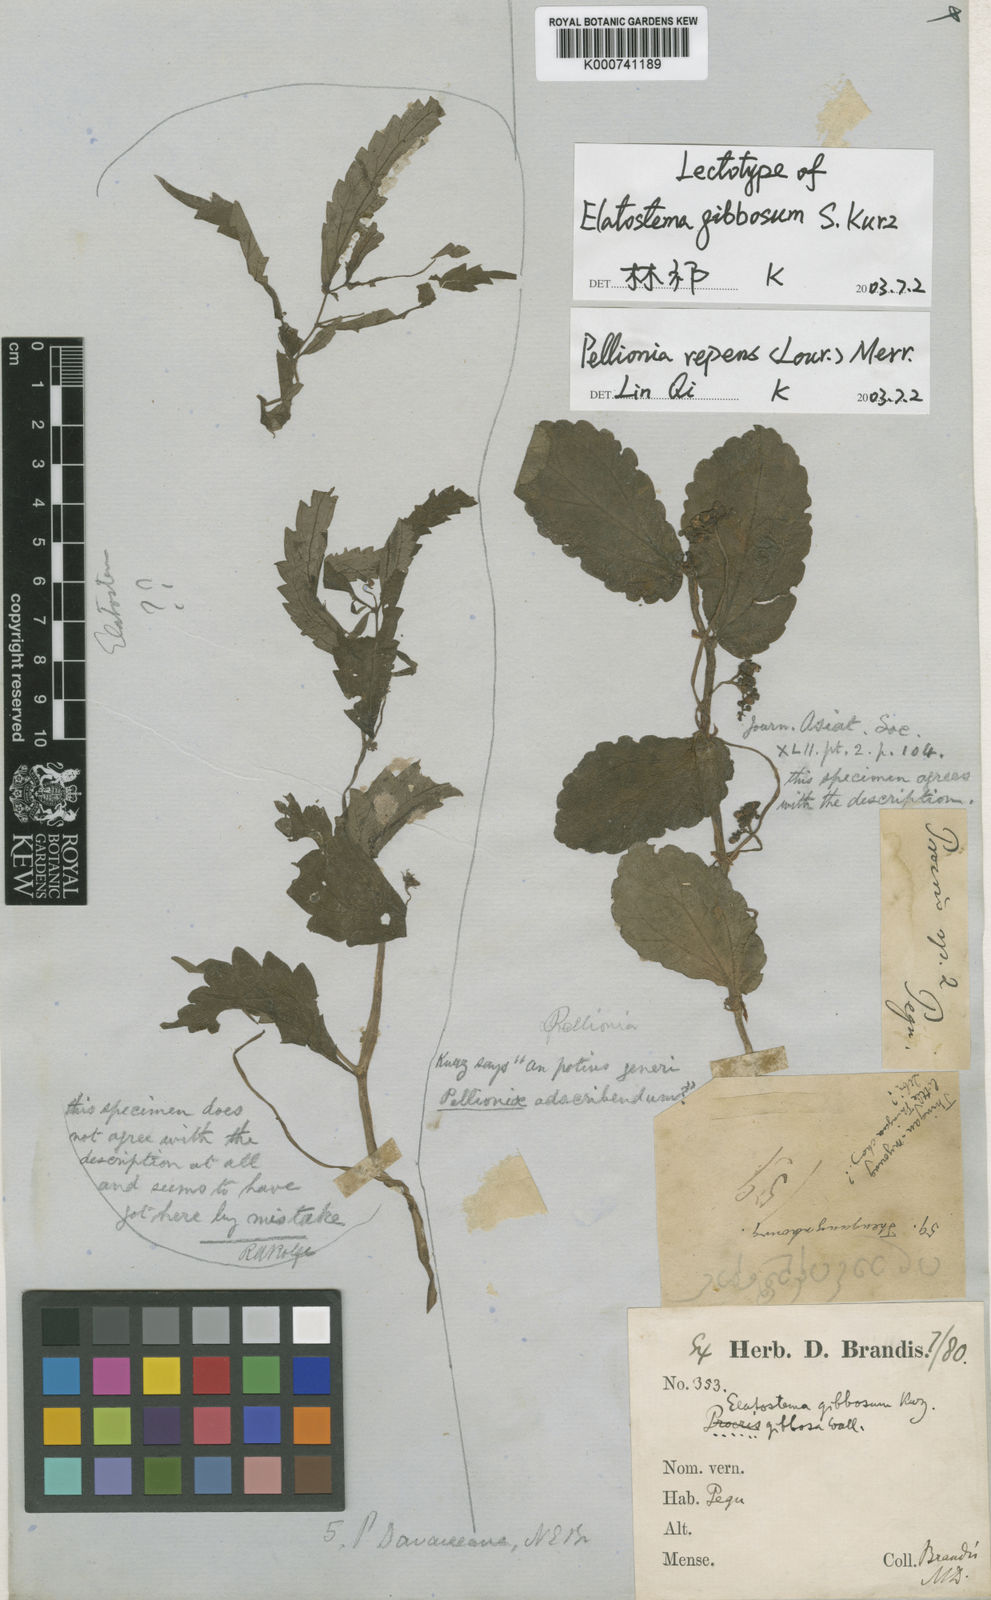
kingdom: Plantae
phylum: Tracheophyta
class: Magnoliopsida
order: Rosales
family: Urticaceae
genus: Procris
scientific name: Procris repens
